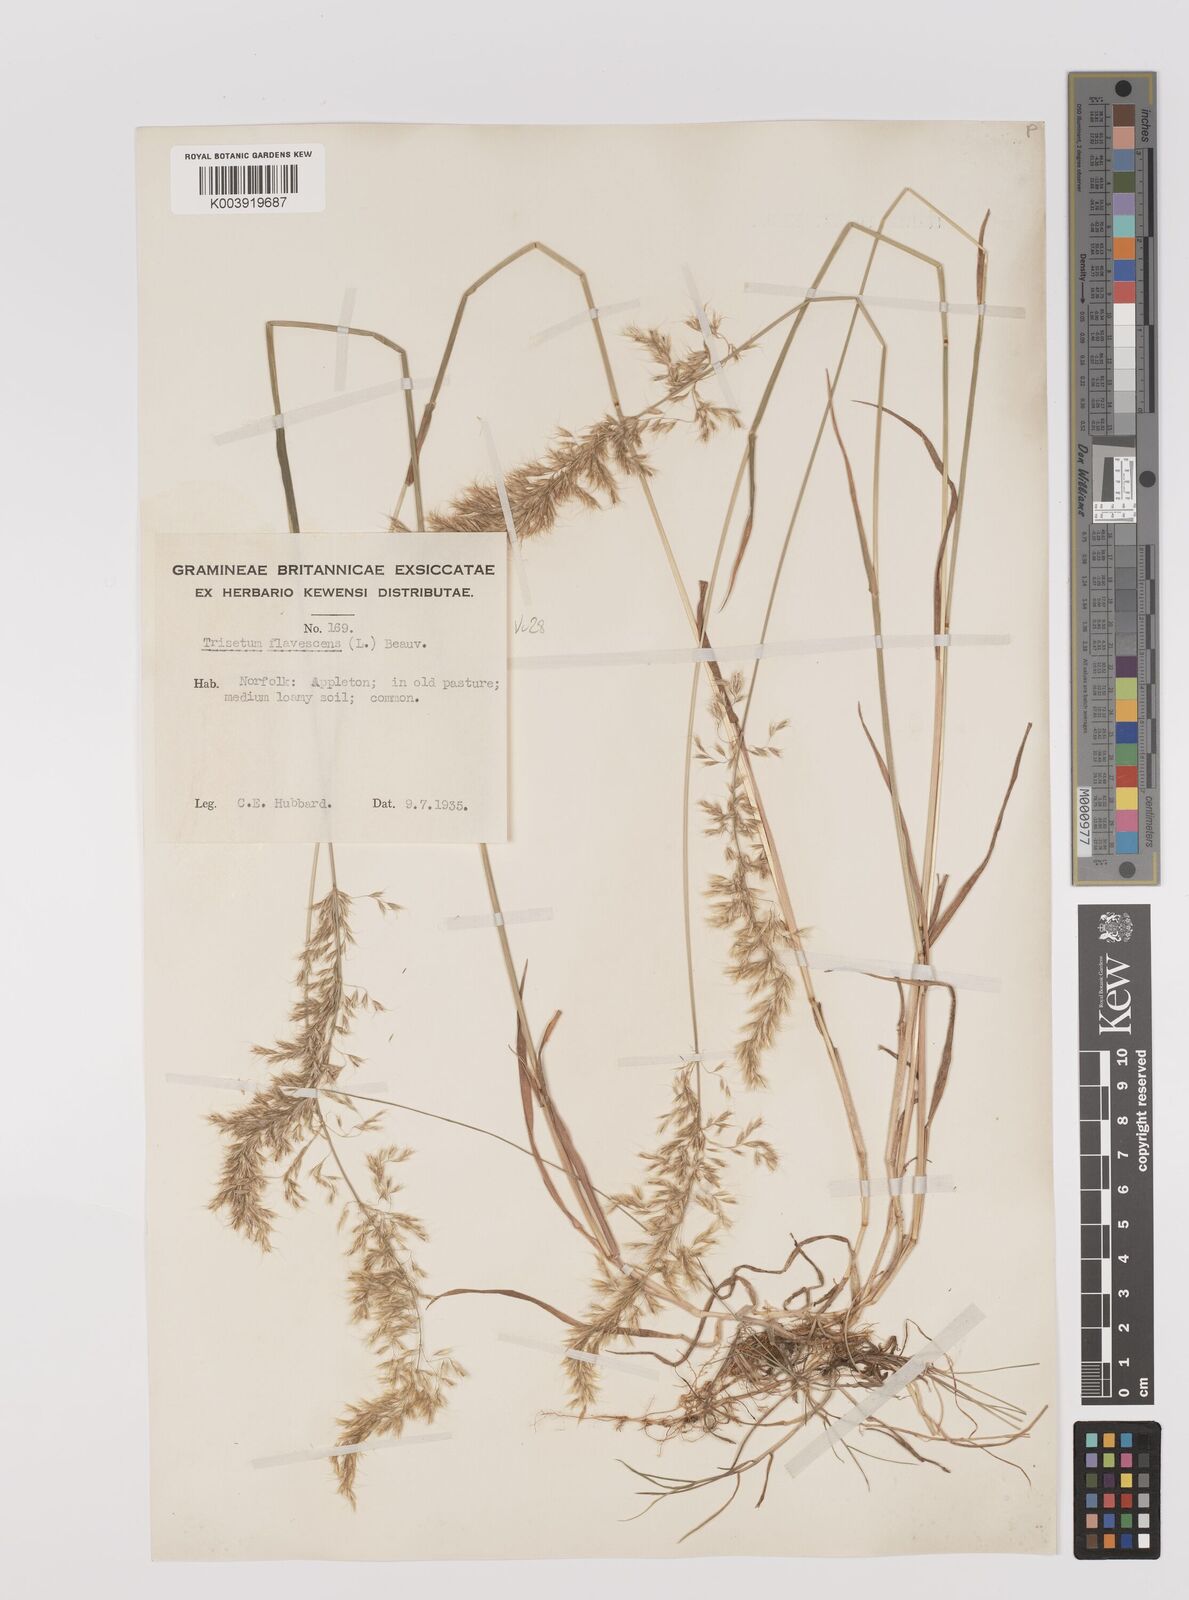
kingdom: Plantae
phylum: Tracheophyta
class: Liliopsida
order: Poales
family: Poaceae
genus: Trisetum
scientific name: Trisetum flavescens
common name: Yellow oat-grass
